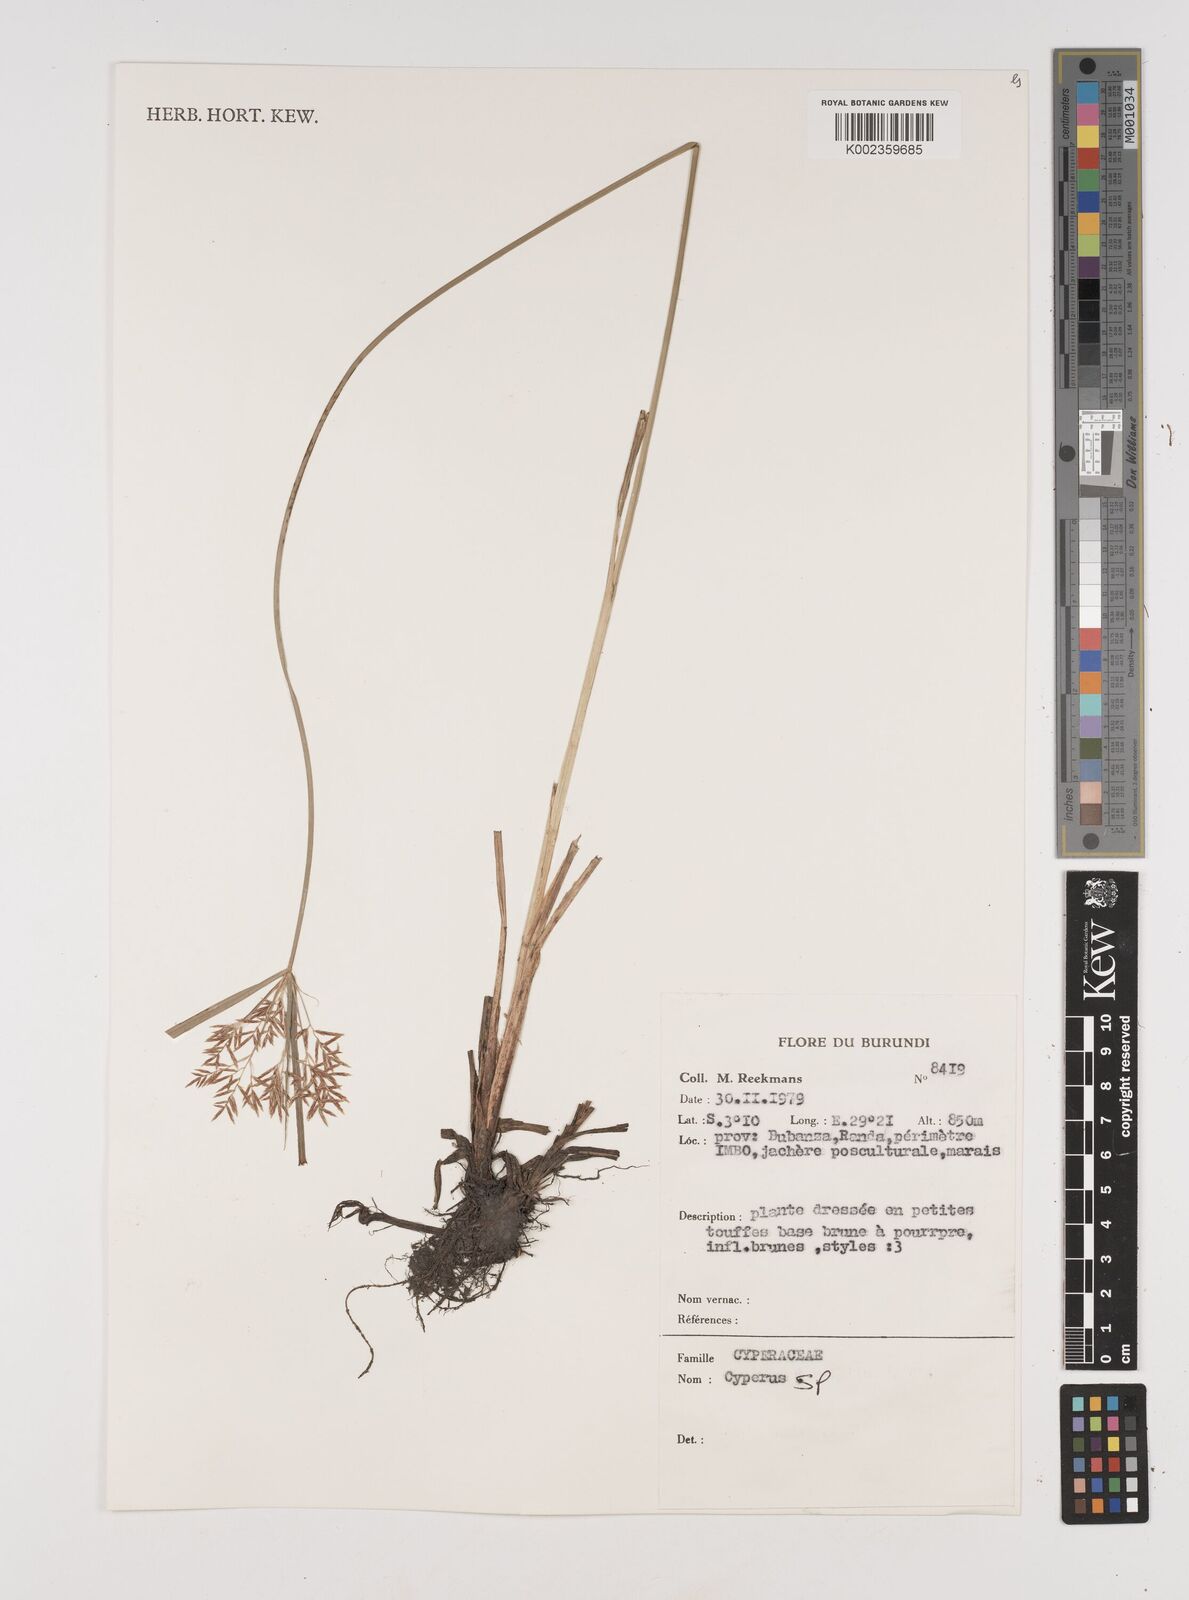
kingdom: Plantae
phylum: Tracheophyta
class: Liliopsida
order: Poales
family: Cyperaceae
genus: Cyperus
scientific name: Cyperus
